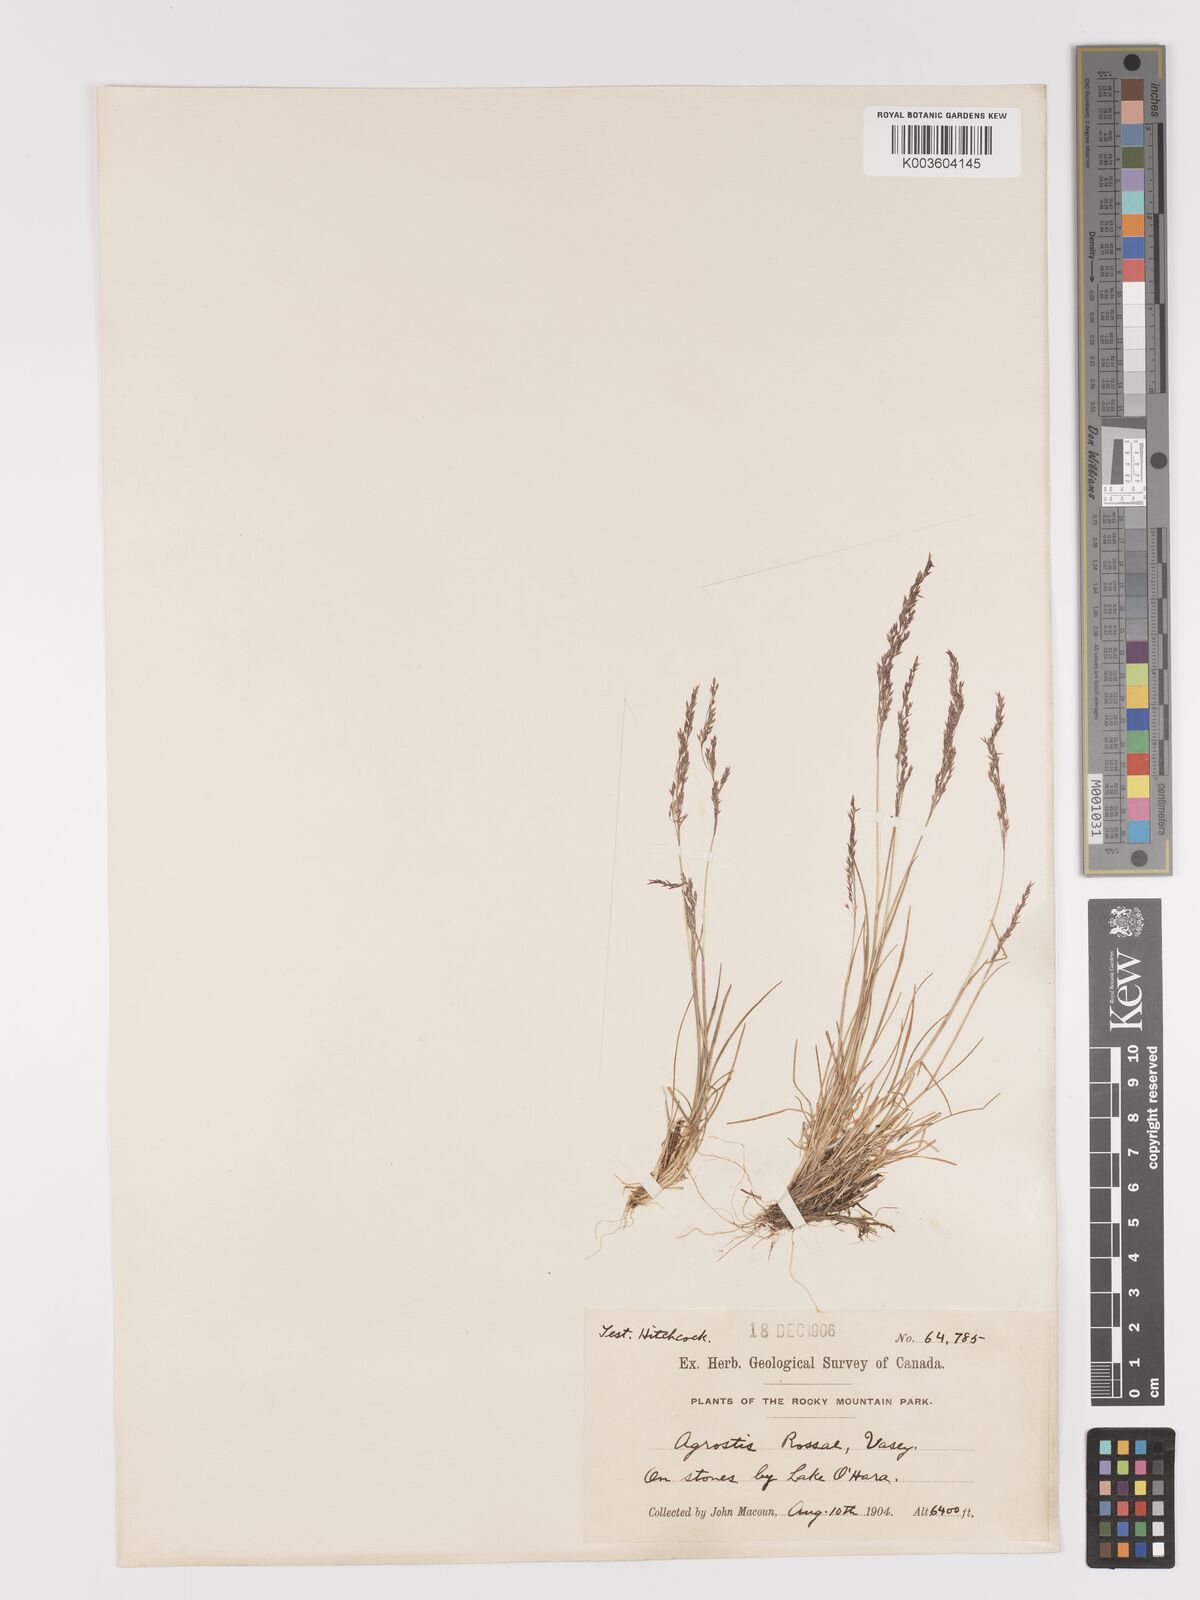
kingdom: Plantae
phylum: Tracheophyta
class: Liliopsida
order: Poales
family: Poaceae
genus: Agrostis
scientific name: Agrostis rossiae
